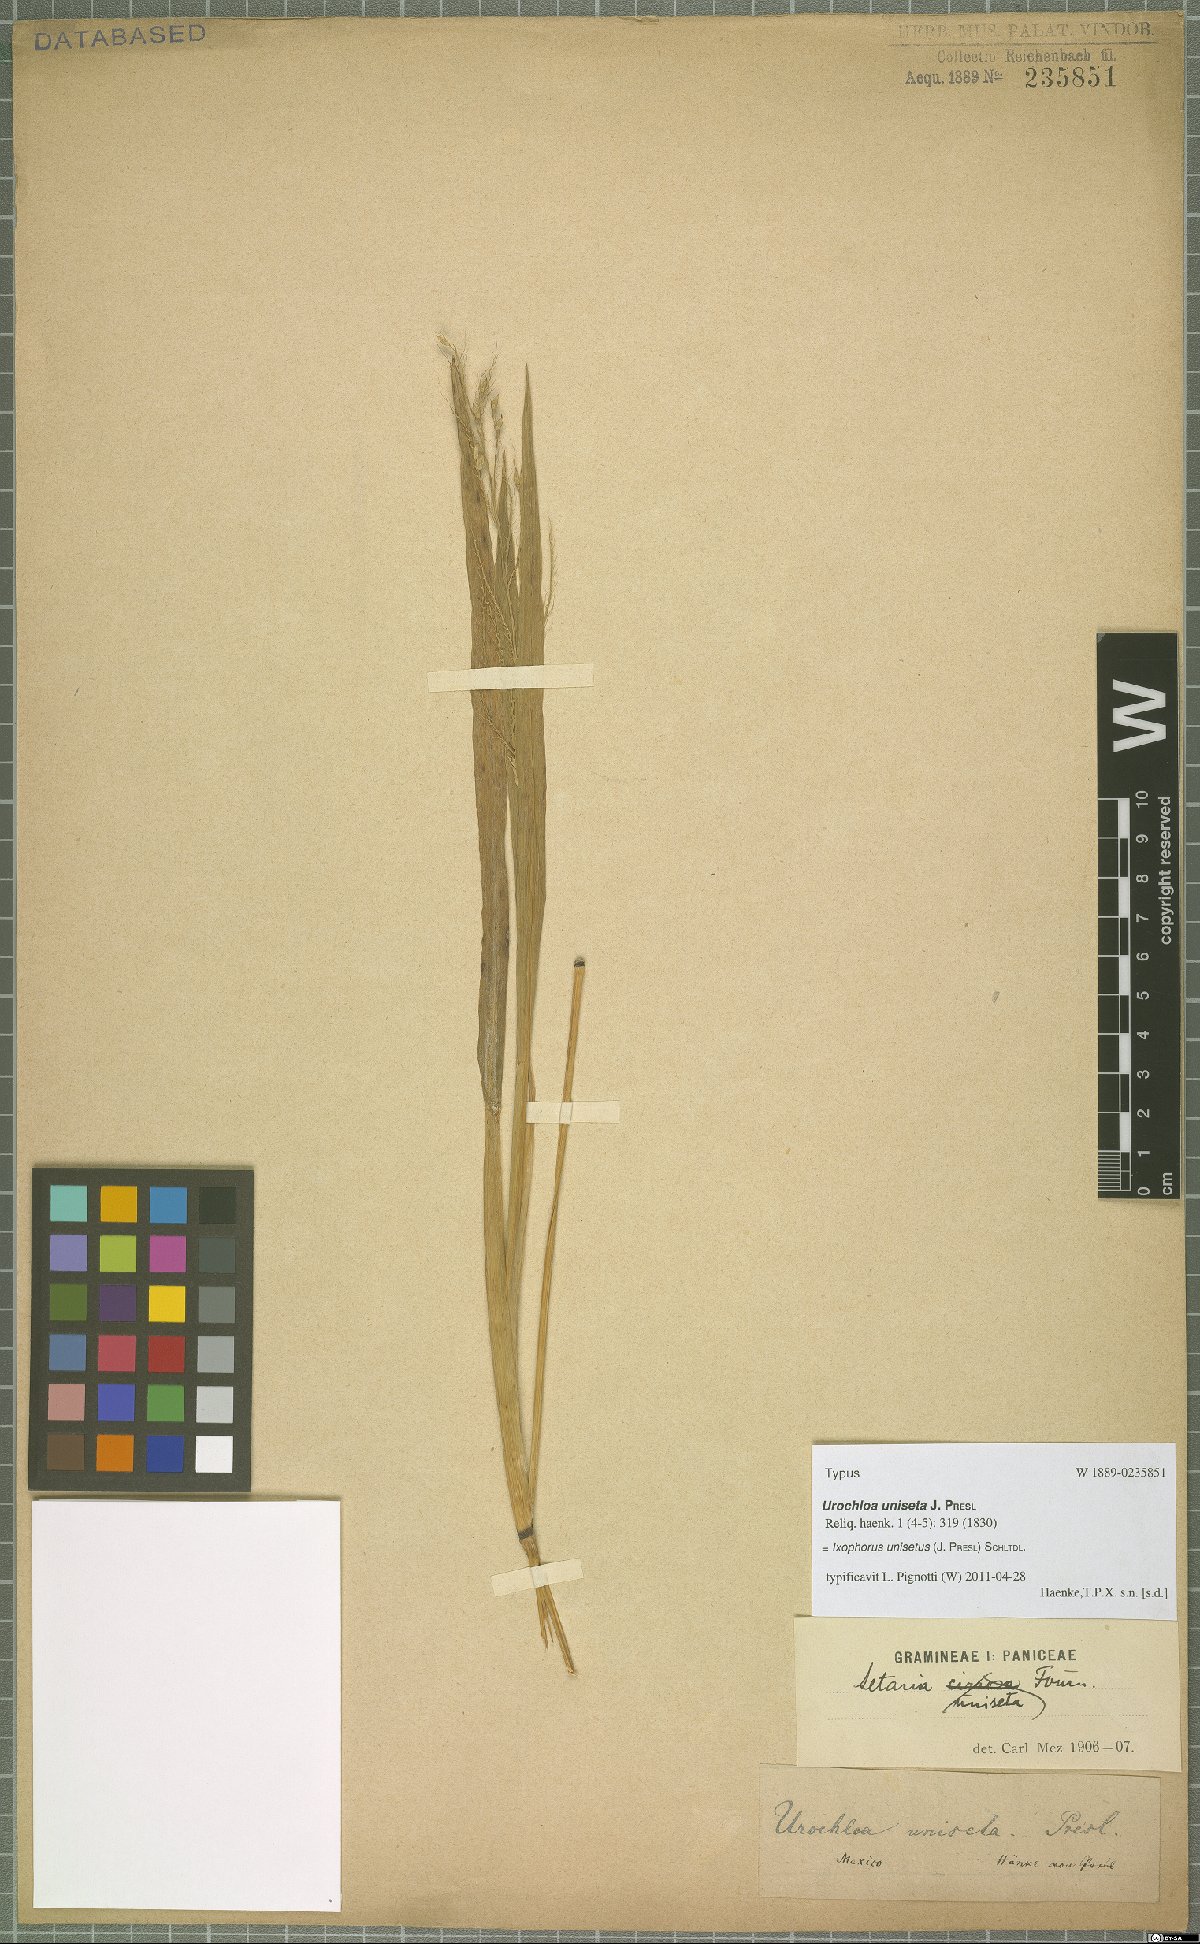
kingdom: Plantae
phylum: Tracheophyta
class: Liliopsida
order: Poales
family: Poaceae
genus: Ixophorus
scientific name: Ixophorus unisetus
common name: Crane grass
